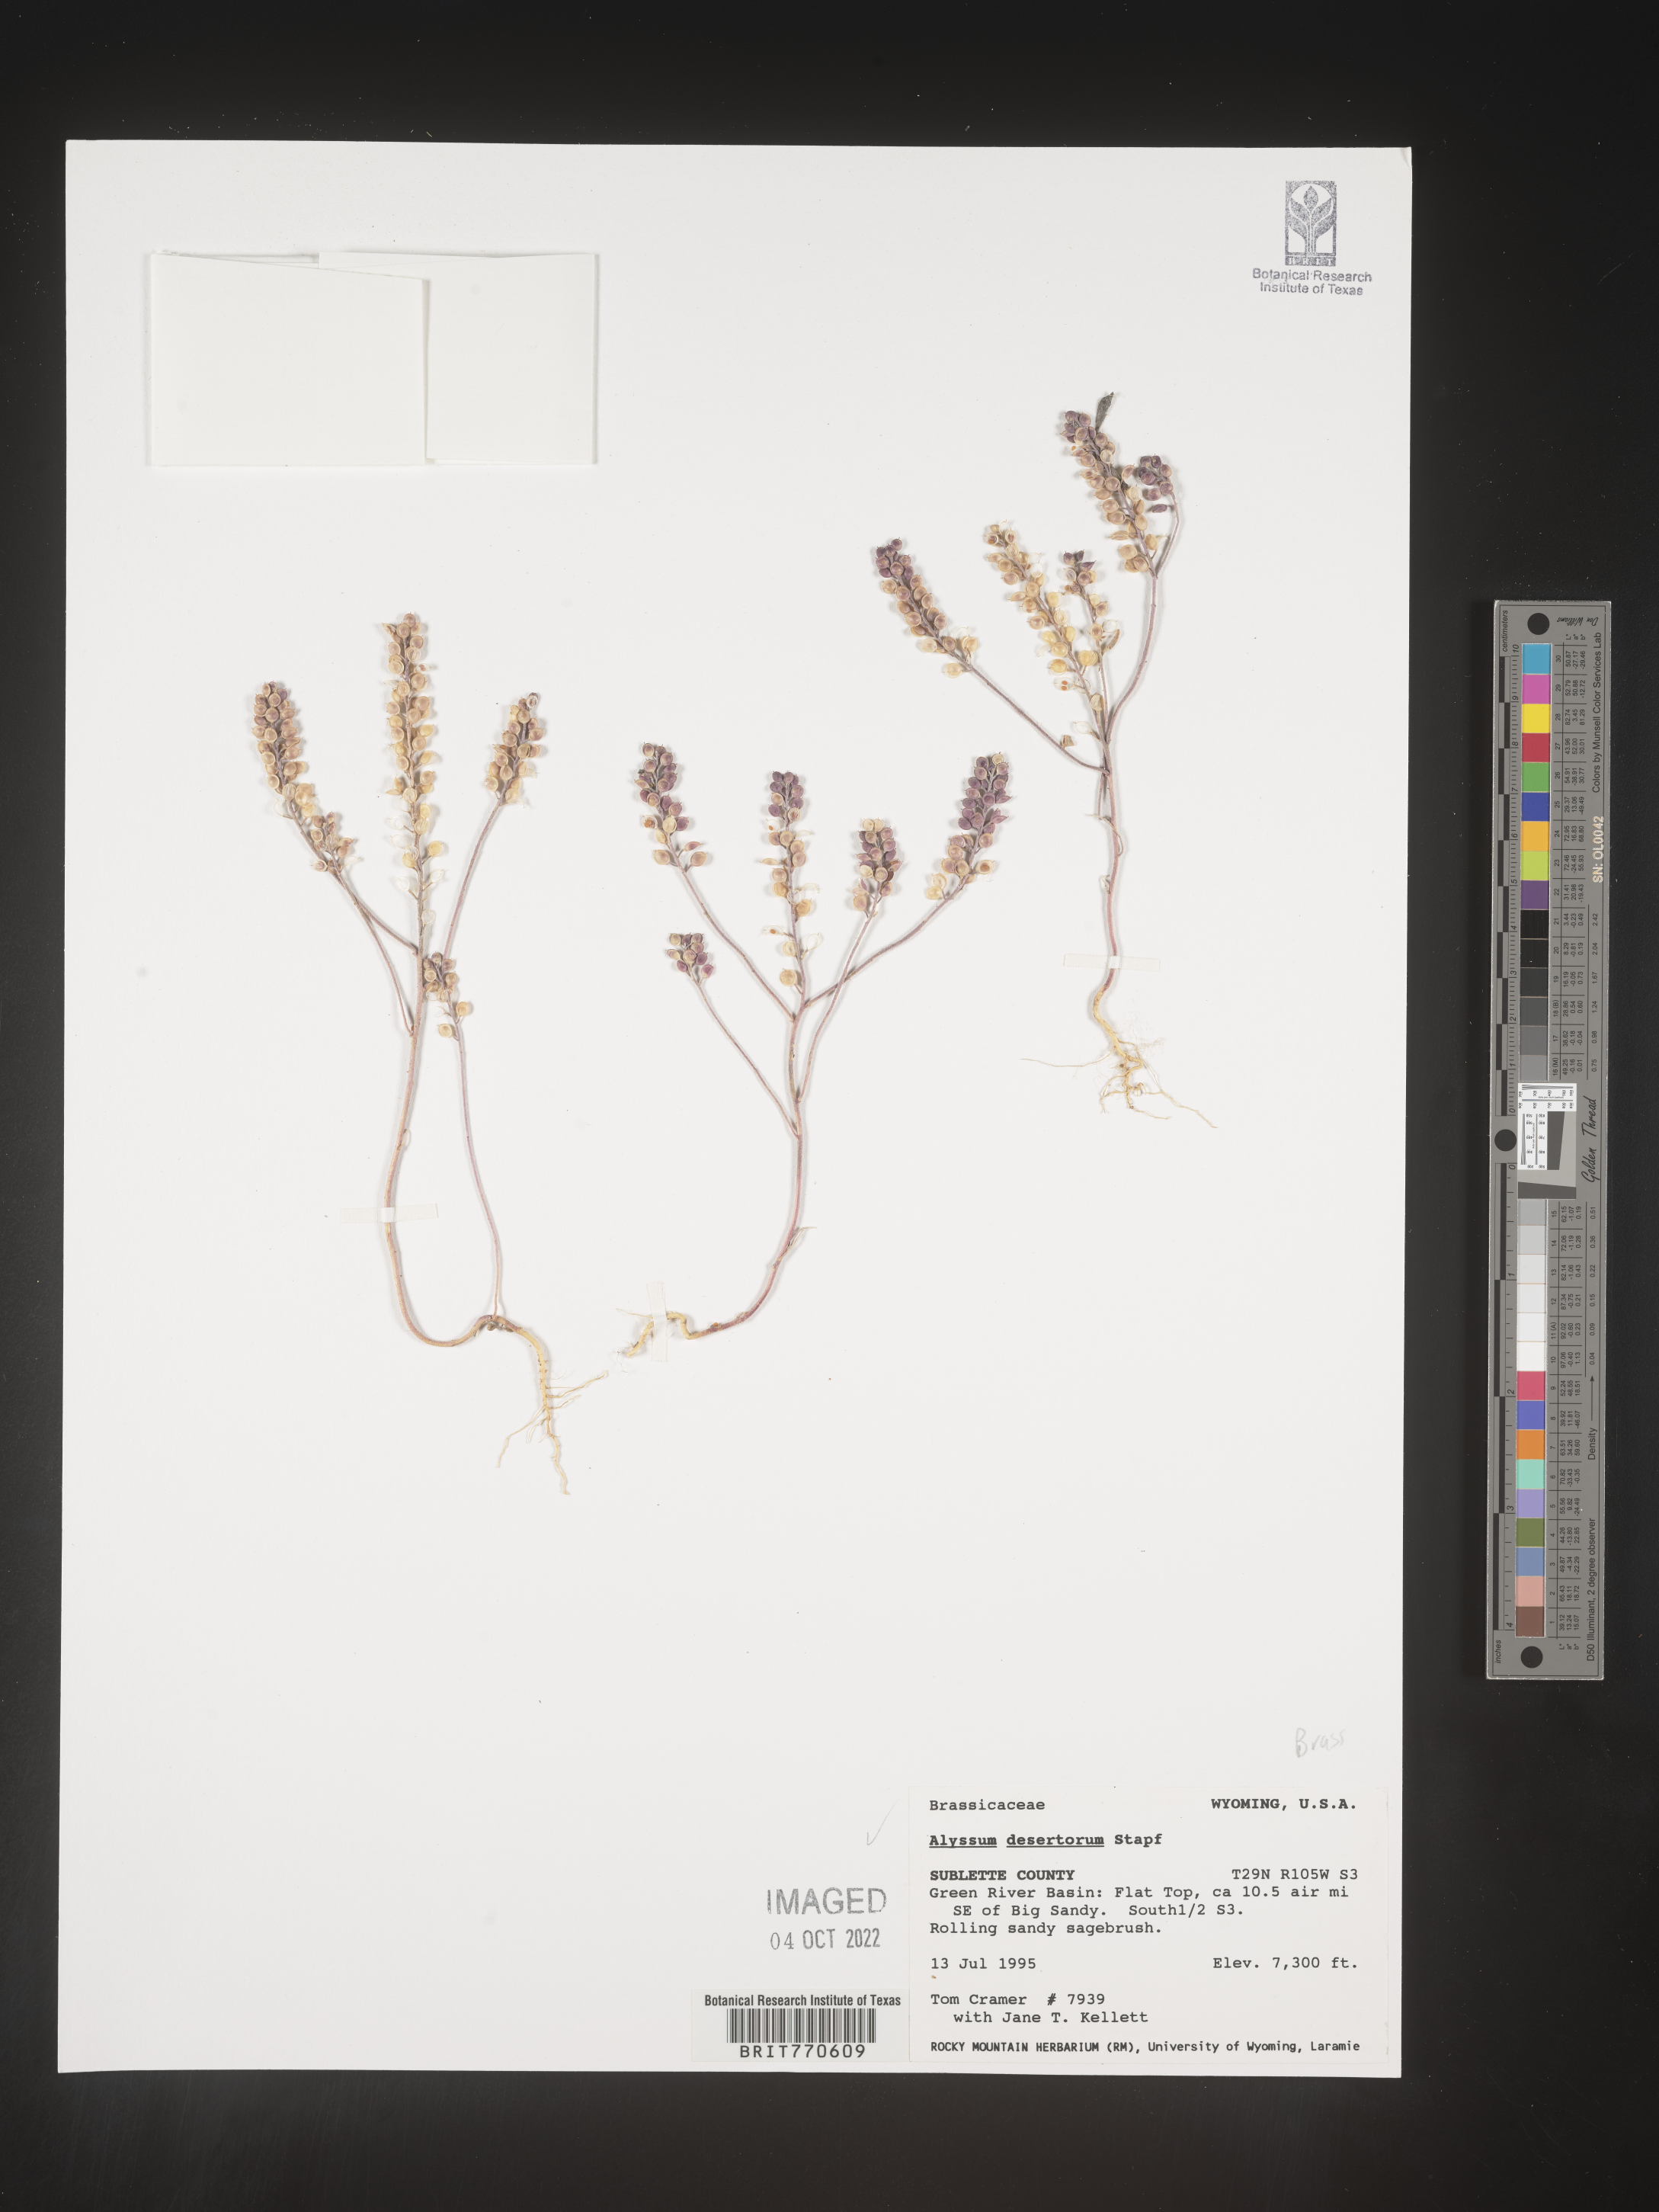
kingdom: Plantae
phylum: Tracheophyta
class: Magnoliopsida
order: Brassicales
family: Brassicaceae
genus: Alyssum
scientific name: Alyssum turkestanicum
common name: Desert alyssum
